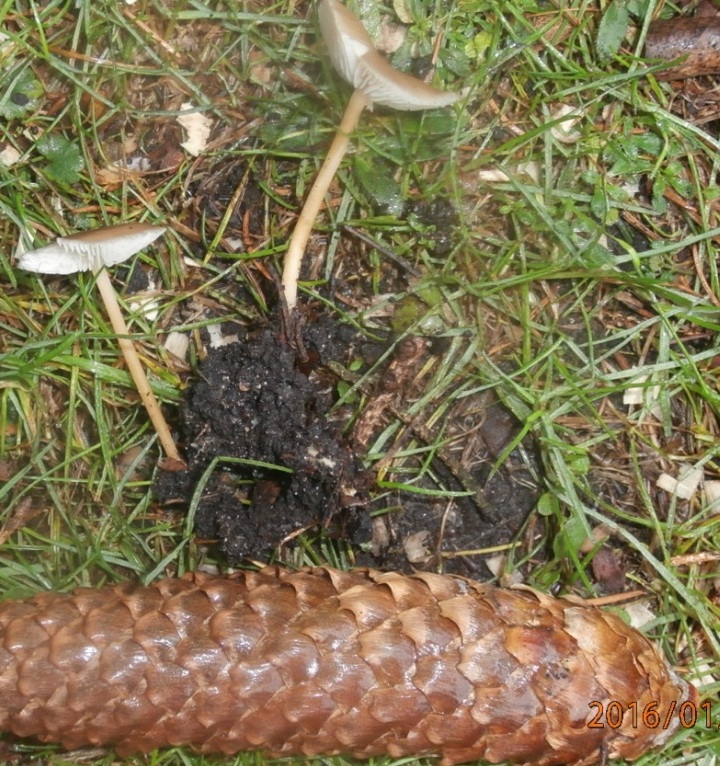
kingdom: Fungi
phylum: Basidiomycota
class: Agaricomycetes
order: Agaricales
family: Physalacriaceae
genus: Strobilurus
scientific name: Strobilurus esculentus
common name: gran-koglehat
